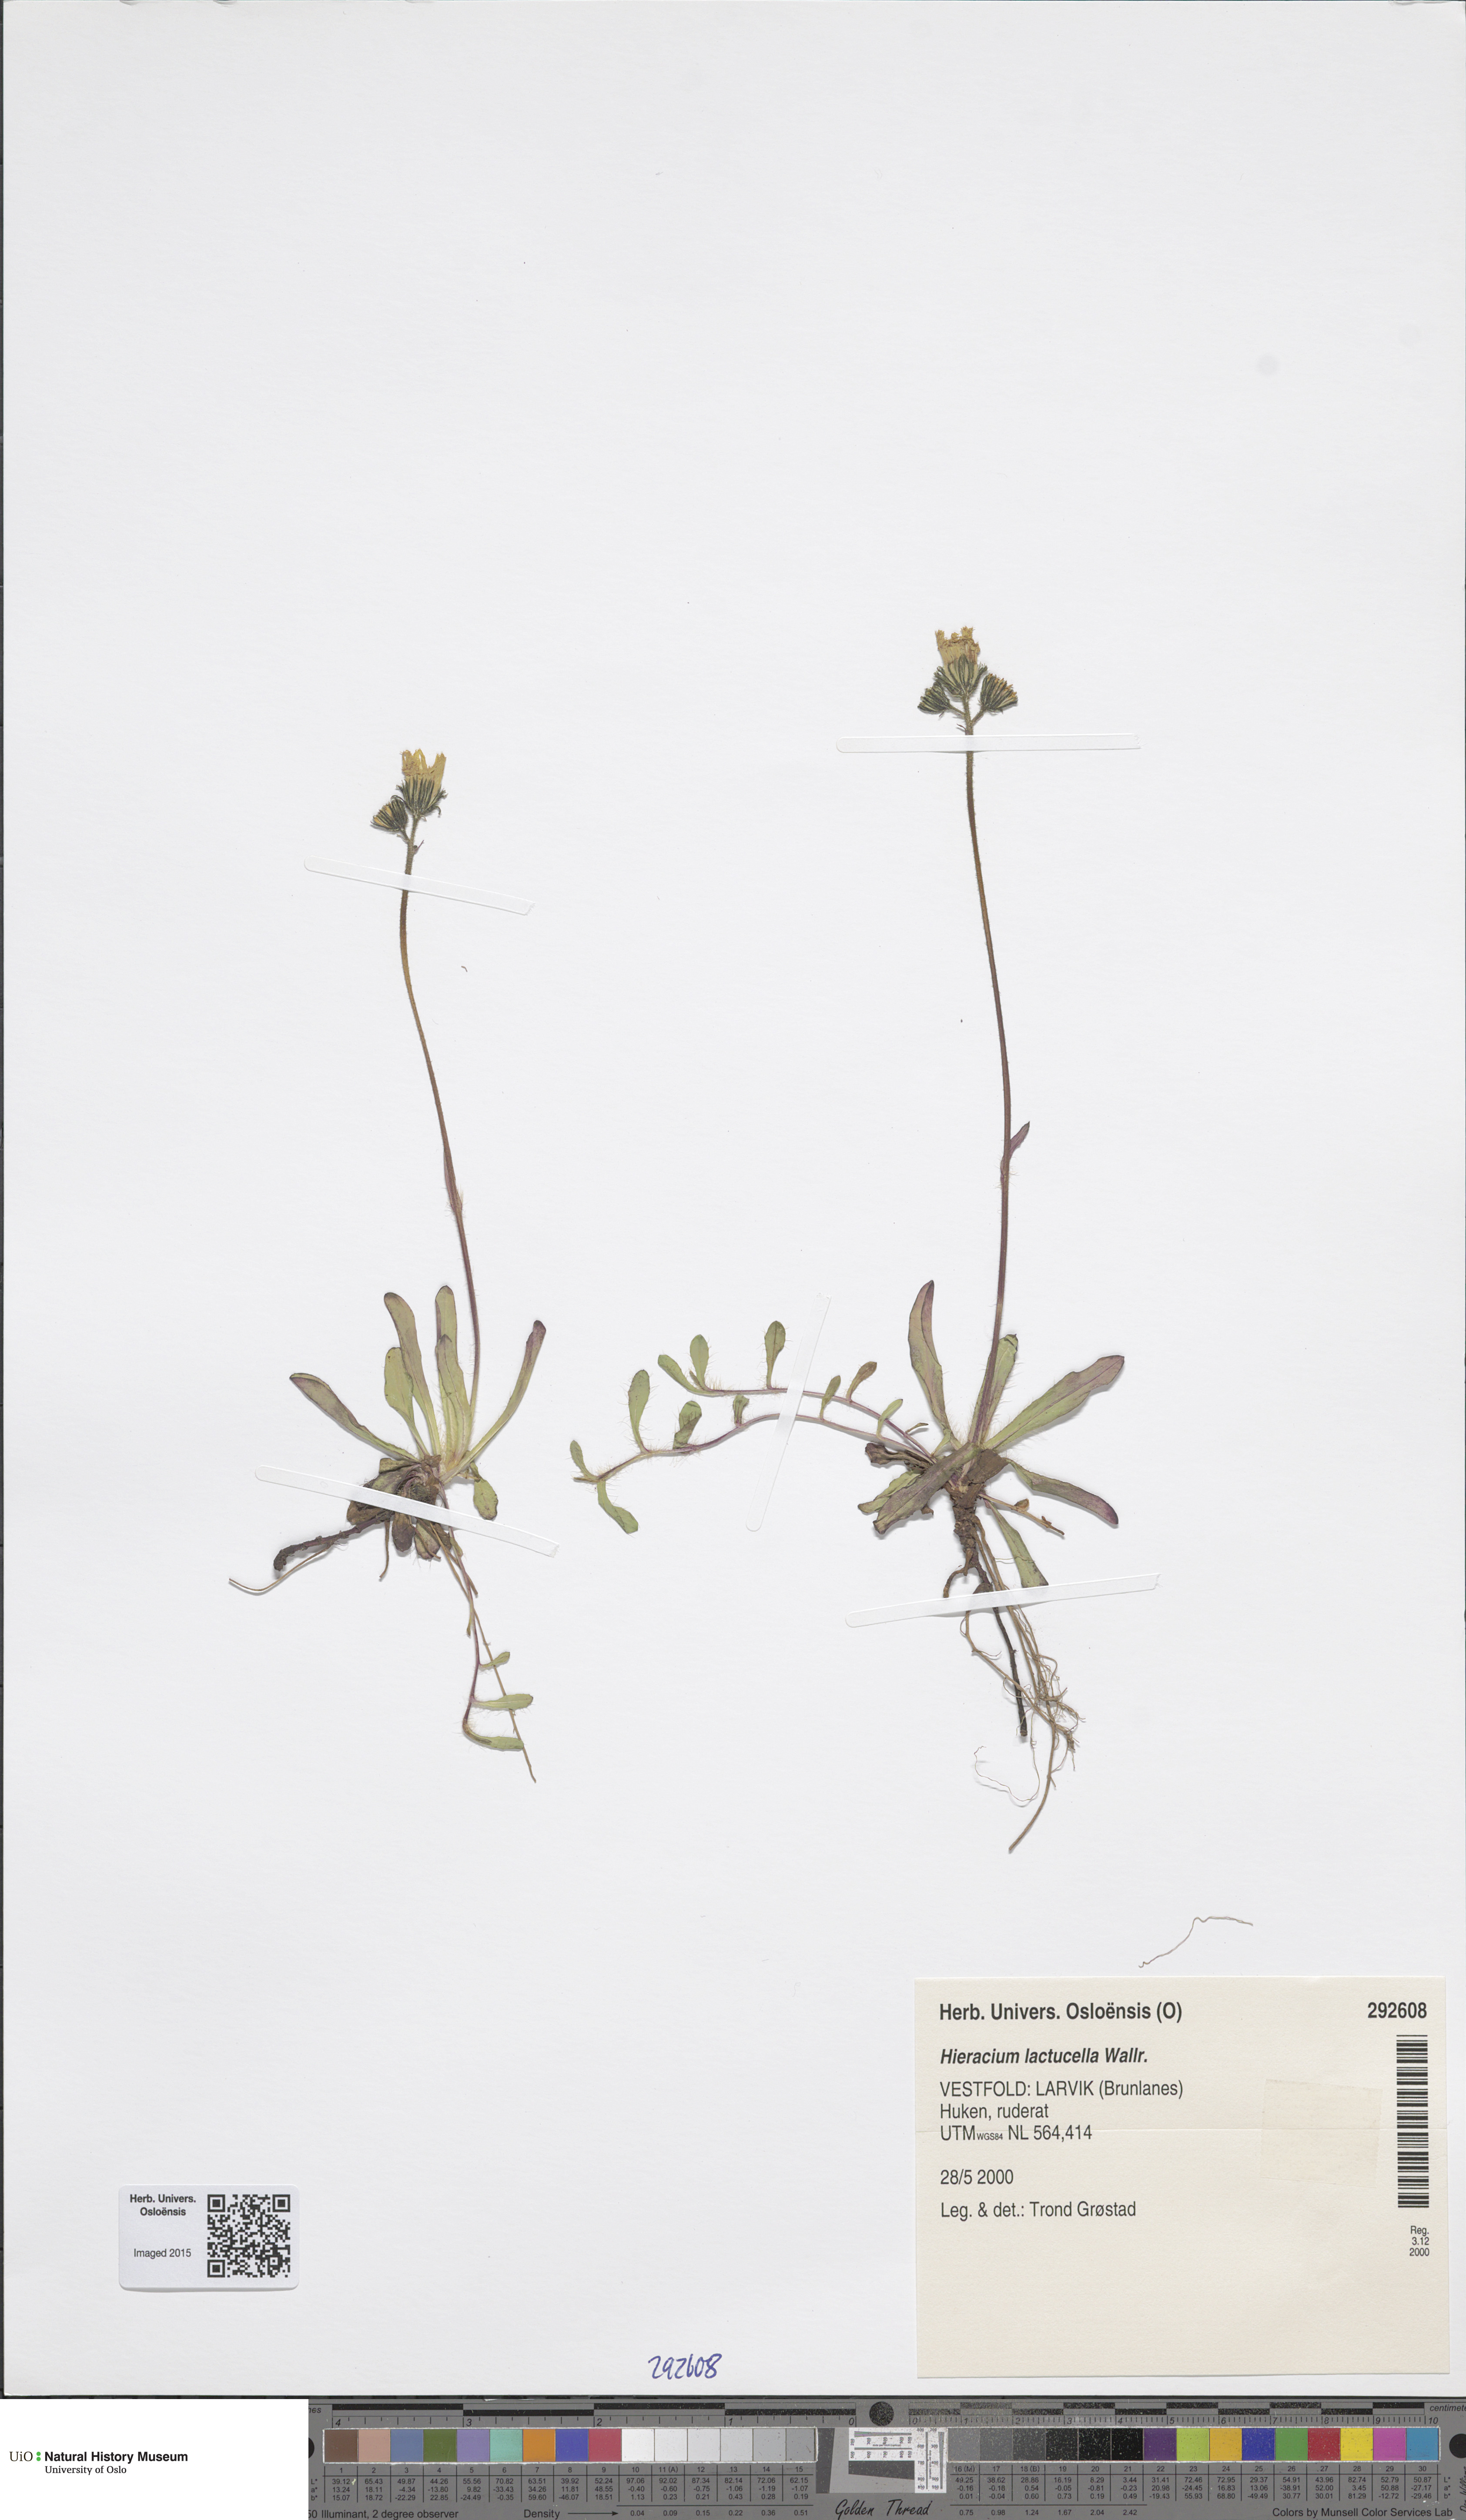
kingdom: Plantae
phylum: Tracheophyta
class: Magnoliopsida
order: Asterales
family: Asteraceae
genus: Pilosella
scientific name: Pilosella lactucella
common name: Glaucous fox-and-cubs
